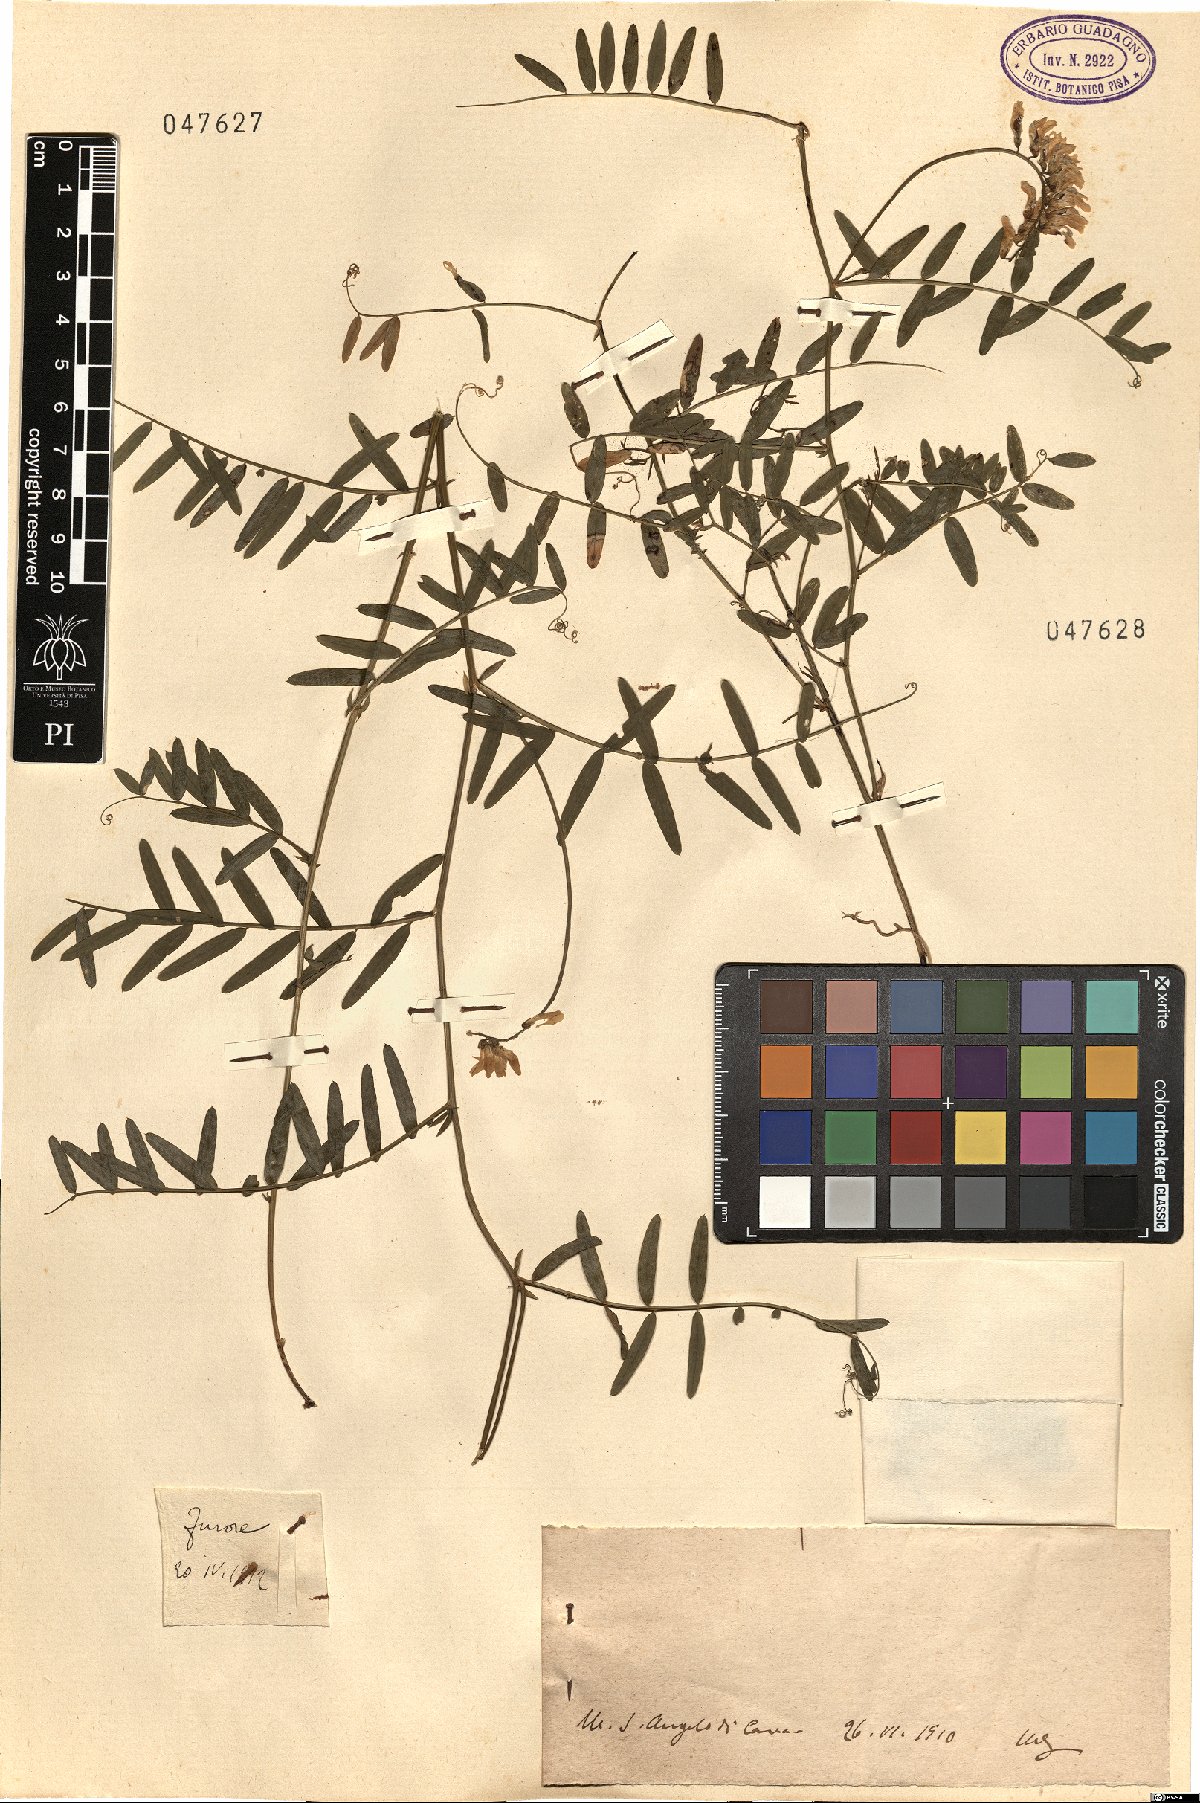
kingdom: Plantae
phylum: Tracheophyta
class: Magnoliopsida
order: Fabales
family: Fabaceae
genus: Vicia
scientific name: Vicia
